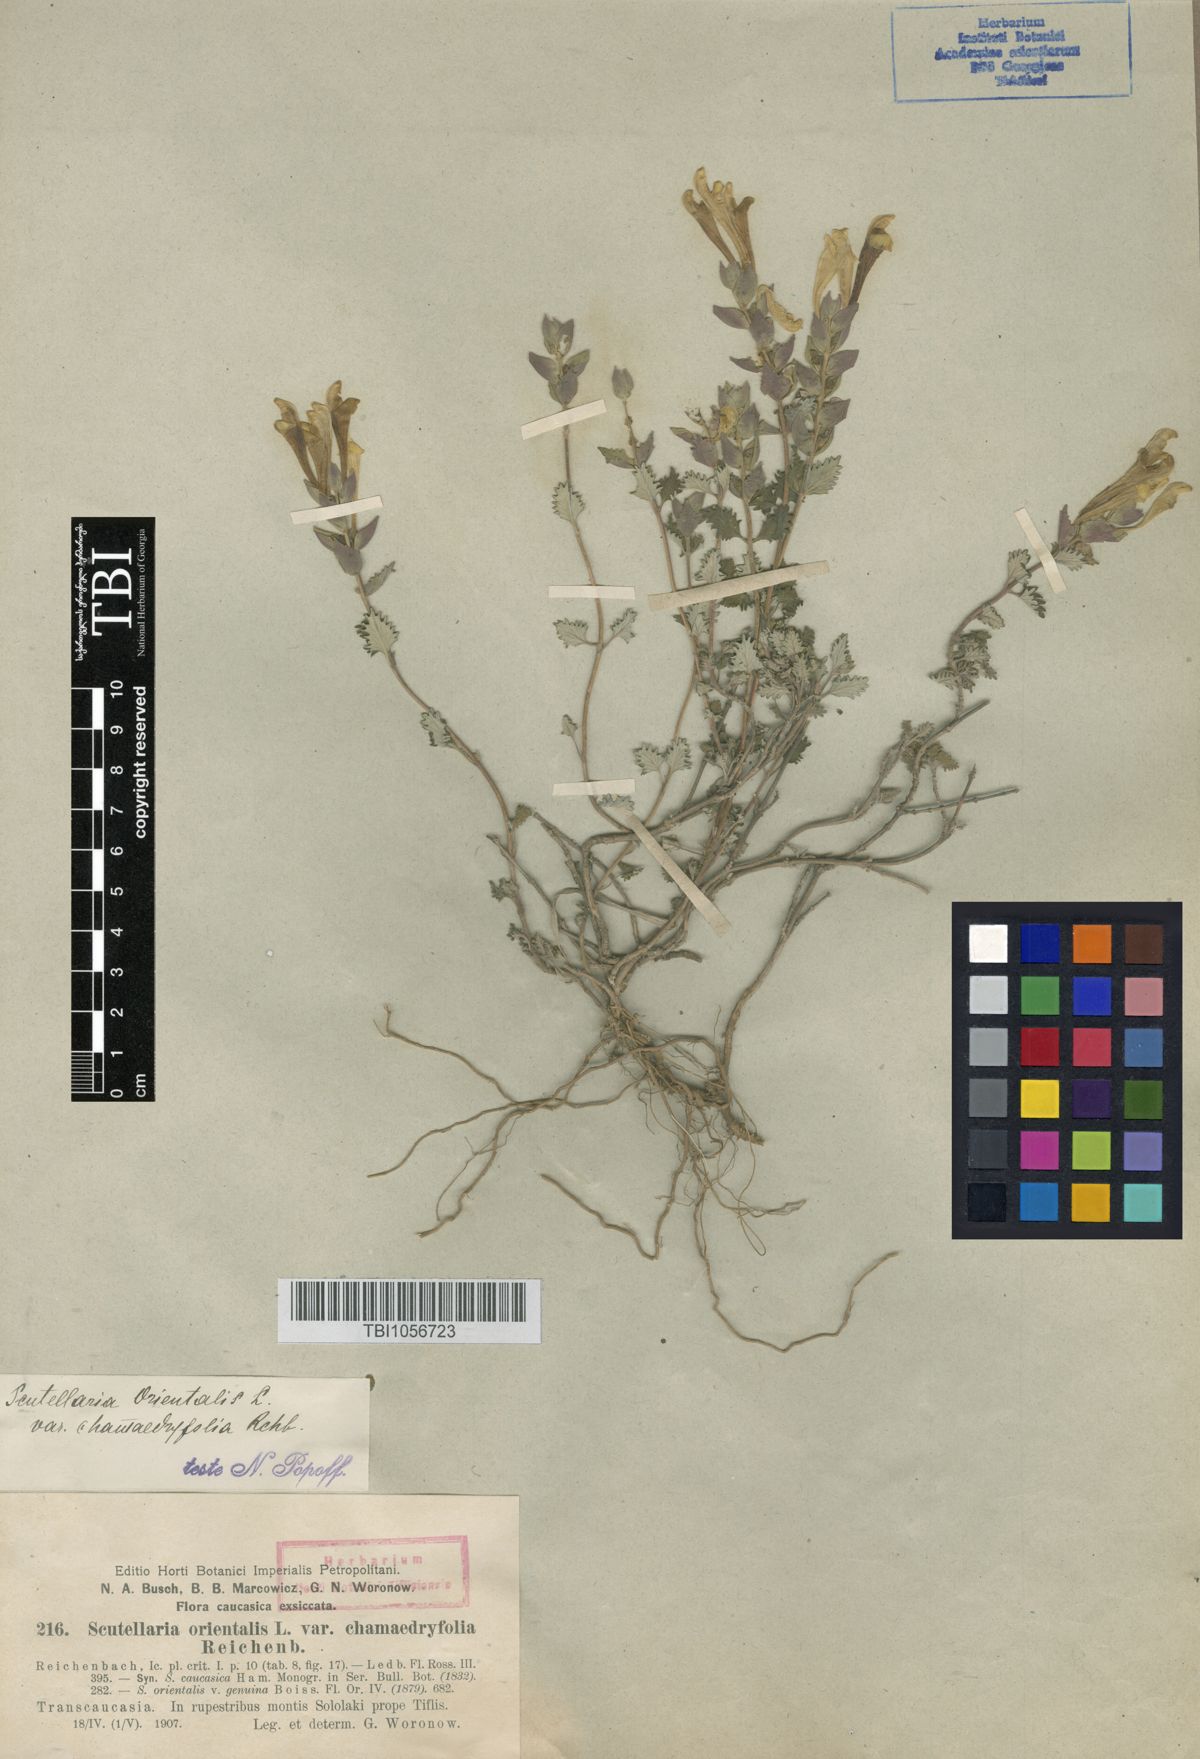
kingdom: Plantae
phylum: Tracheophyta
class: Magnoliopsida
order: Lamiales
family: Lamiaceae
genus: Scutellaria
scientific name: Scutellaria orientalis
